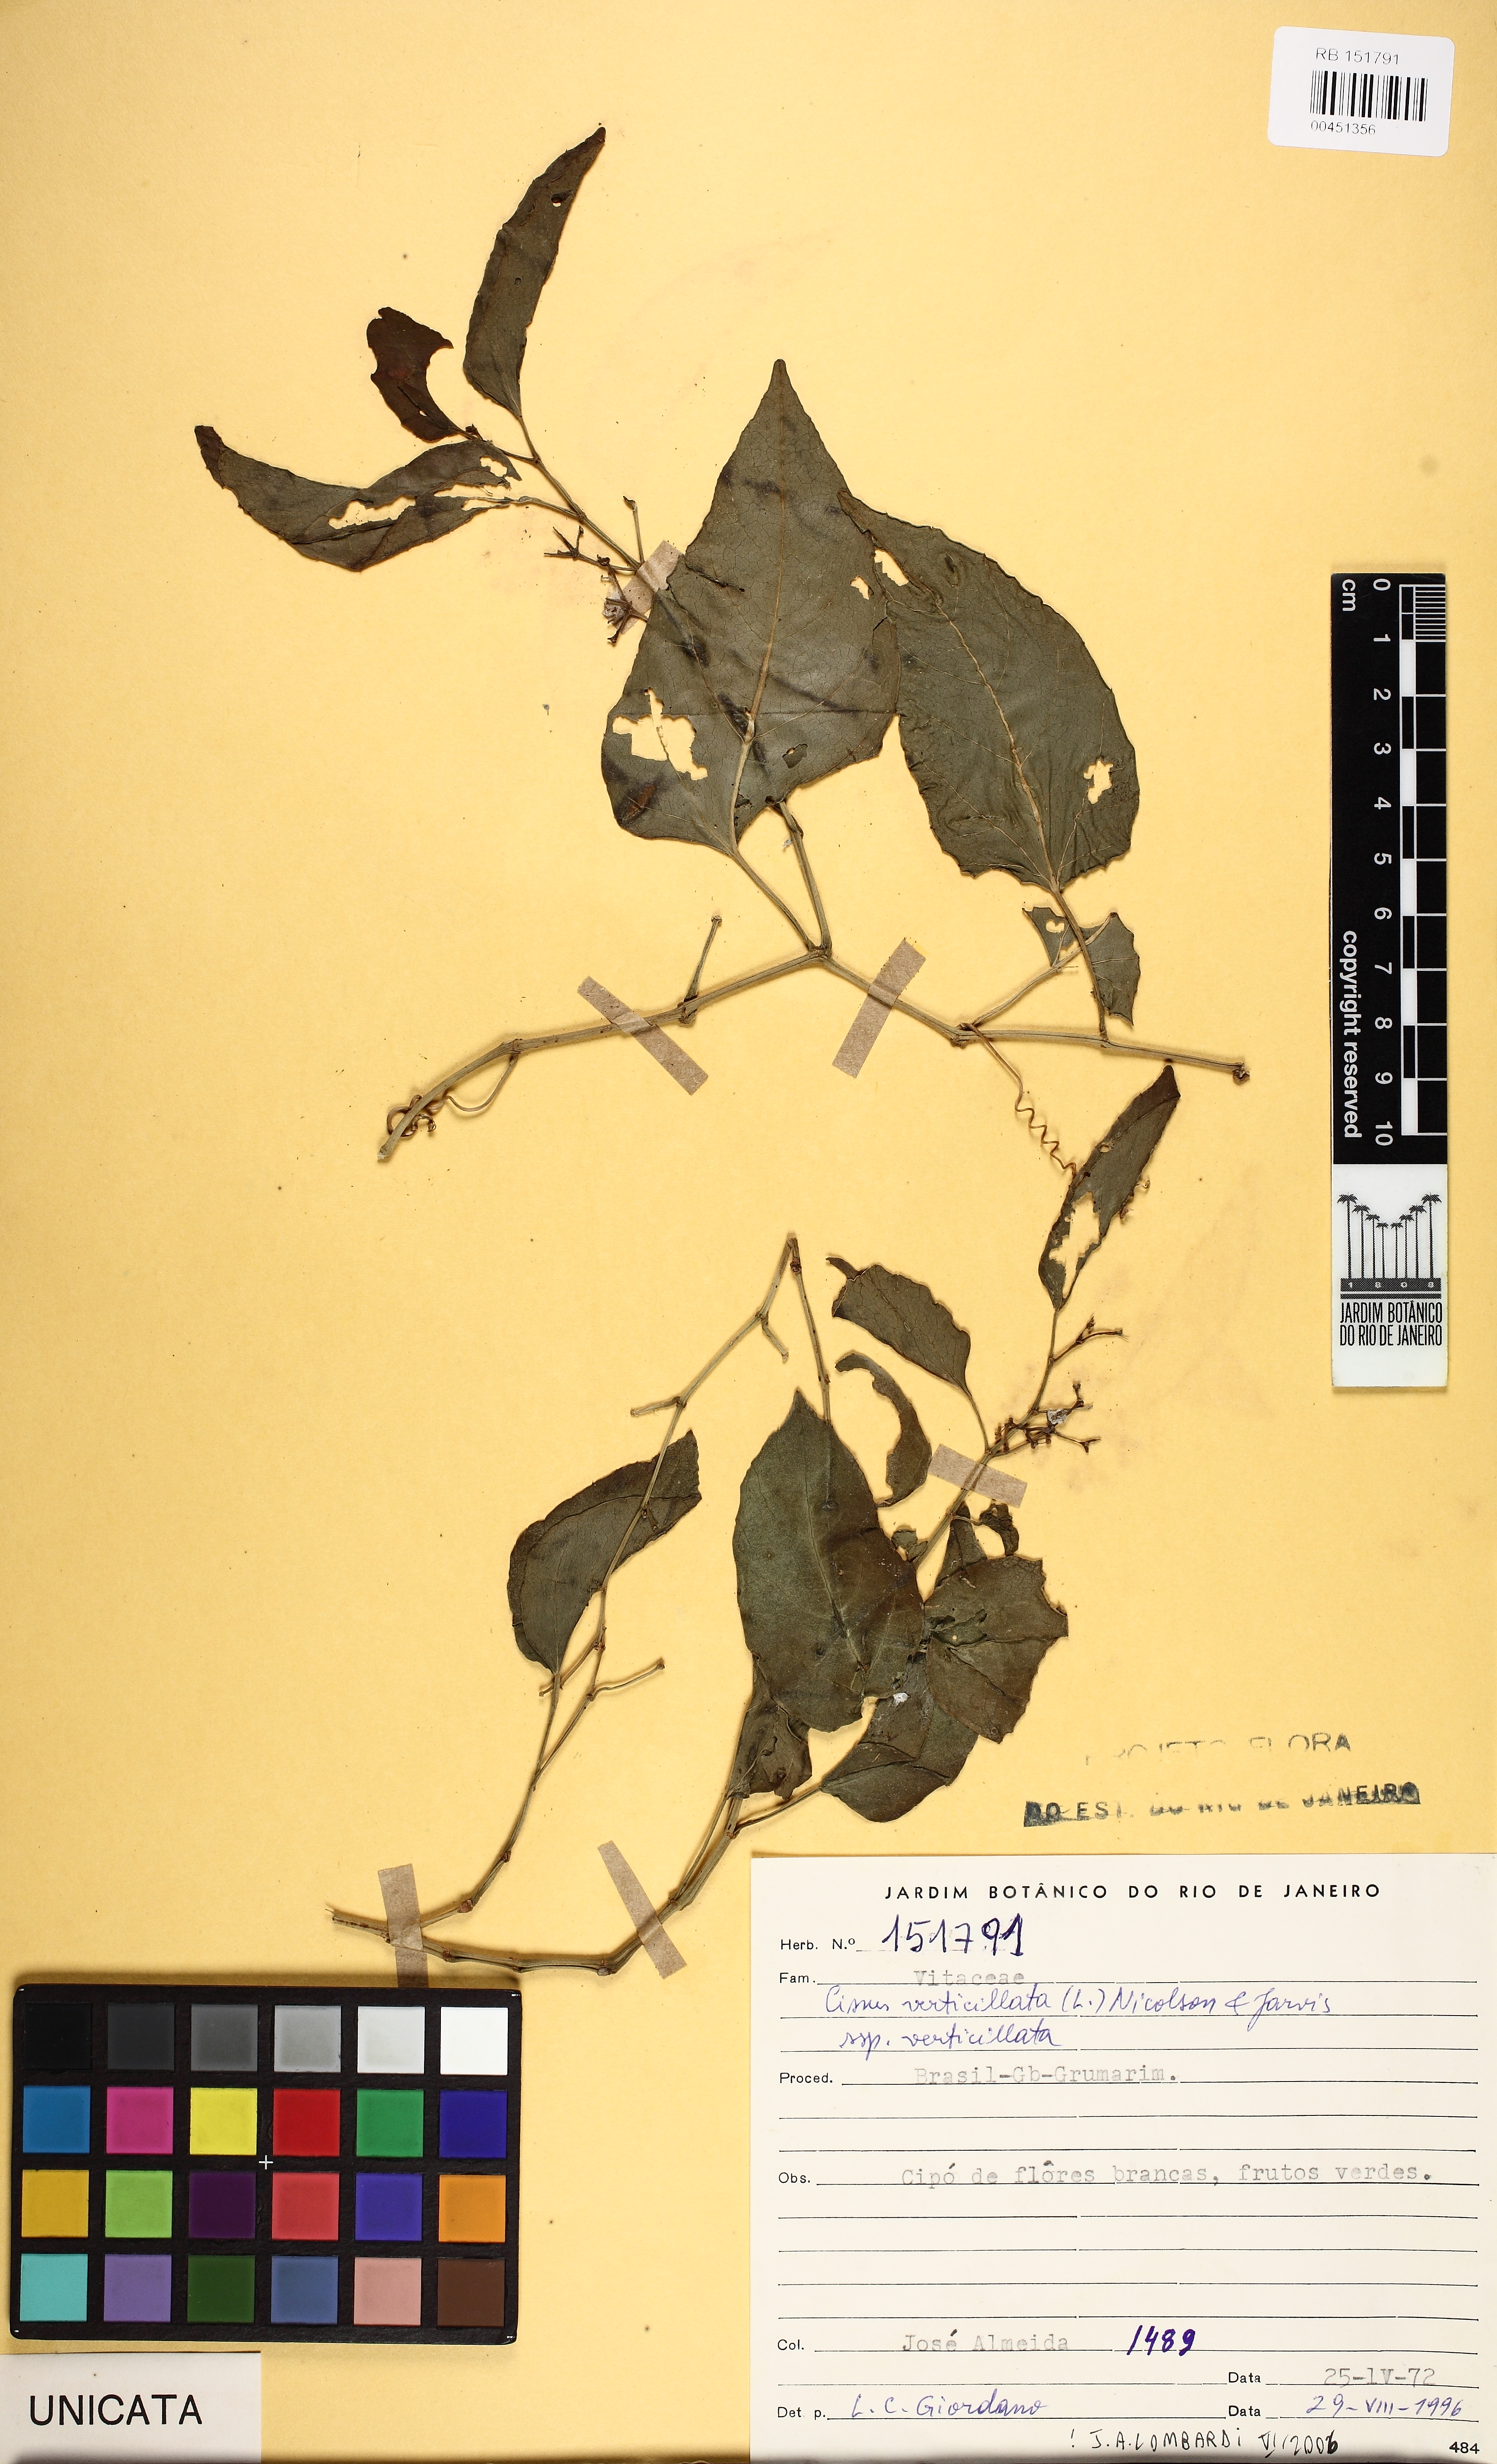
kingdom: Plantae
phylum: Tracheophyta
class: Magnoliopsida
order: Vitales
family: Vitaceae
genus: Cissus
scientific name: Cissus verticillata
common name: Princess vine
